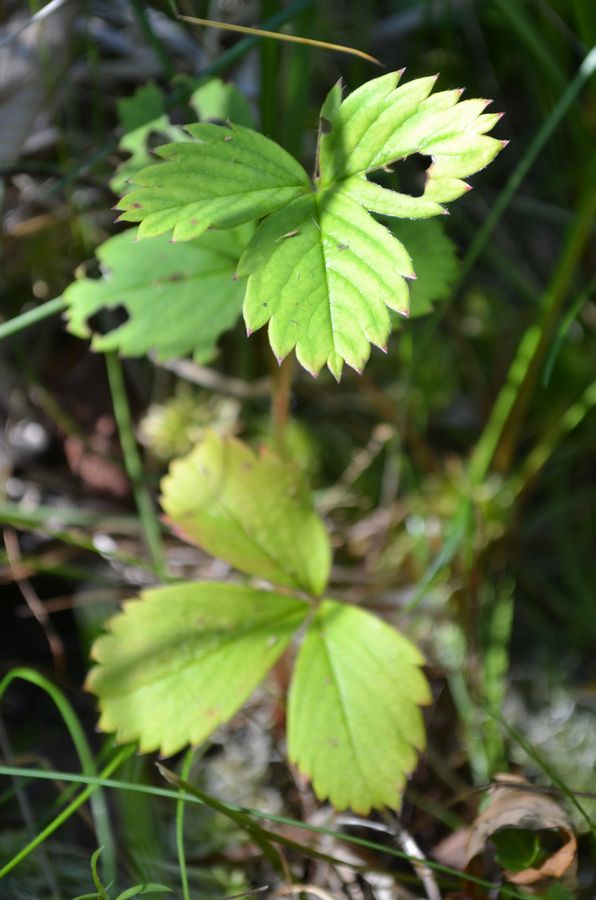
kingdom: Plantae
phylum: Tracheophyta
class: Magnoliopsida
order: Rosales
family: Rosaceae
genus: Fragaria
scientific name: Fragaria vesca
